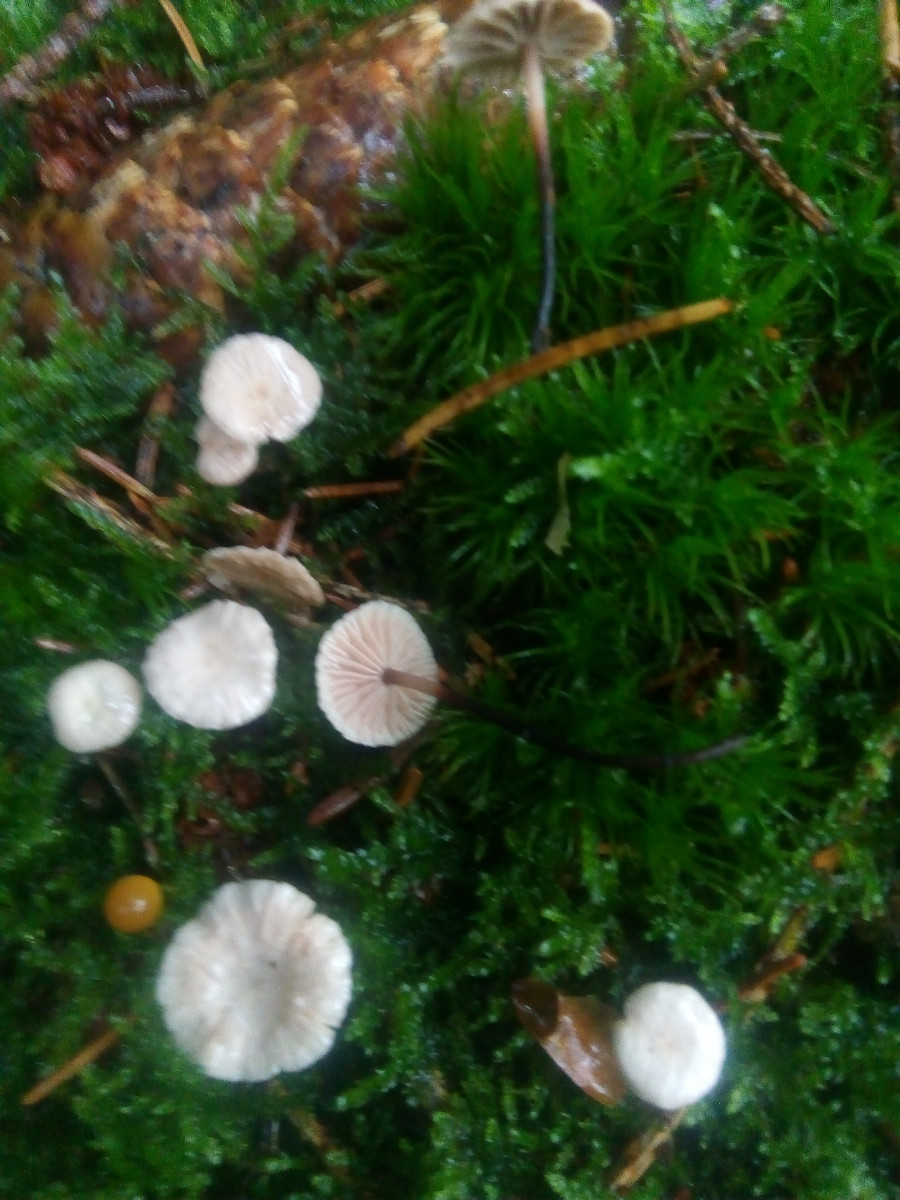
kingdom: Fungi
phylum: Basidiomycota
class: Agaricomycetes
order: Agaricales
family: Omphalotaceae
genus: Paragymnopus
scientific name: Paragymnopus perforans
